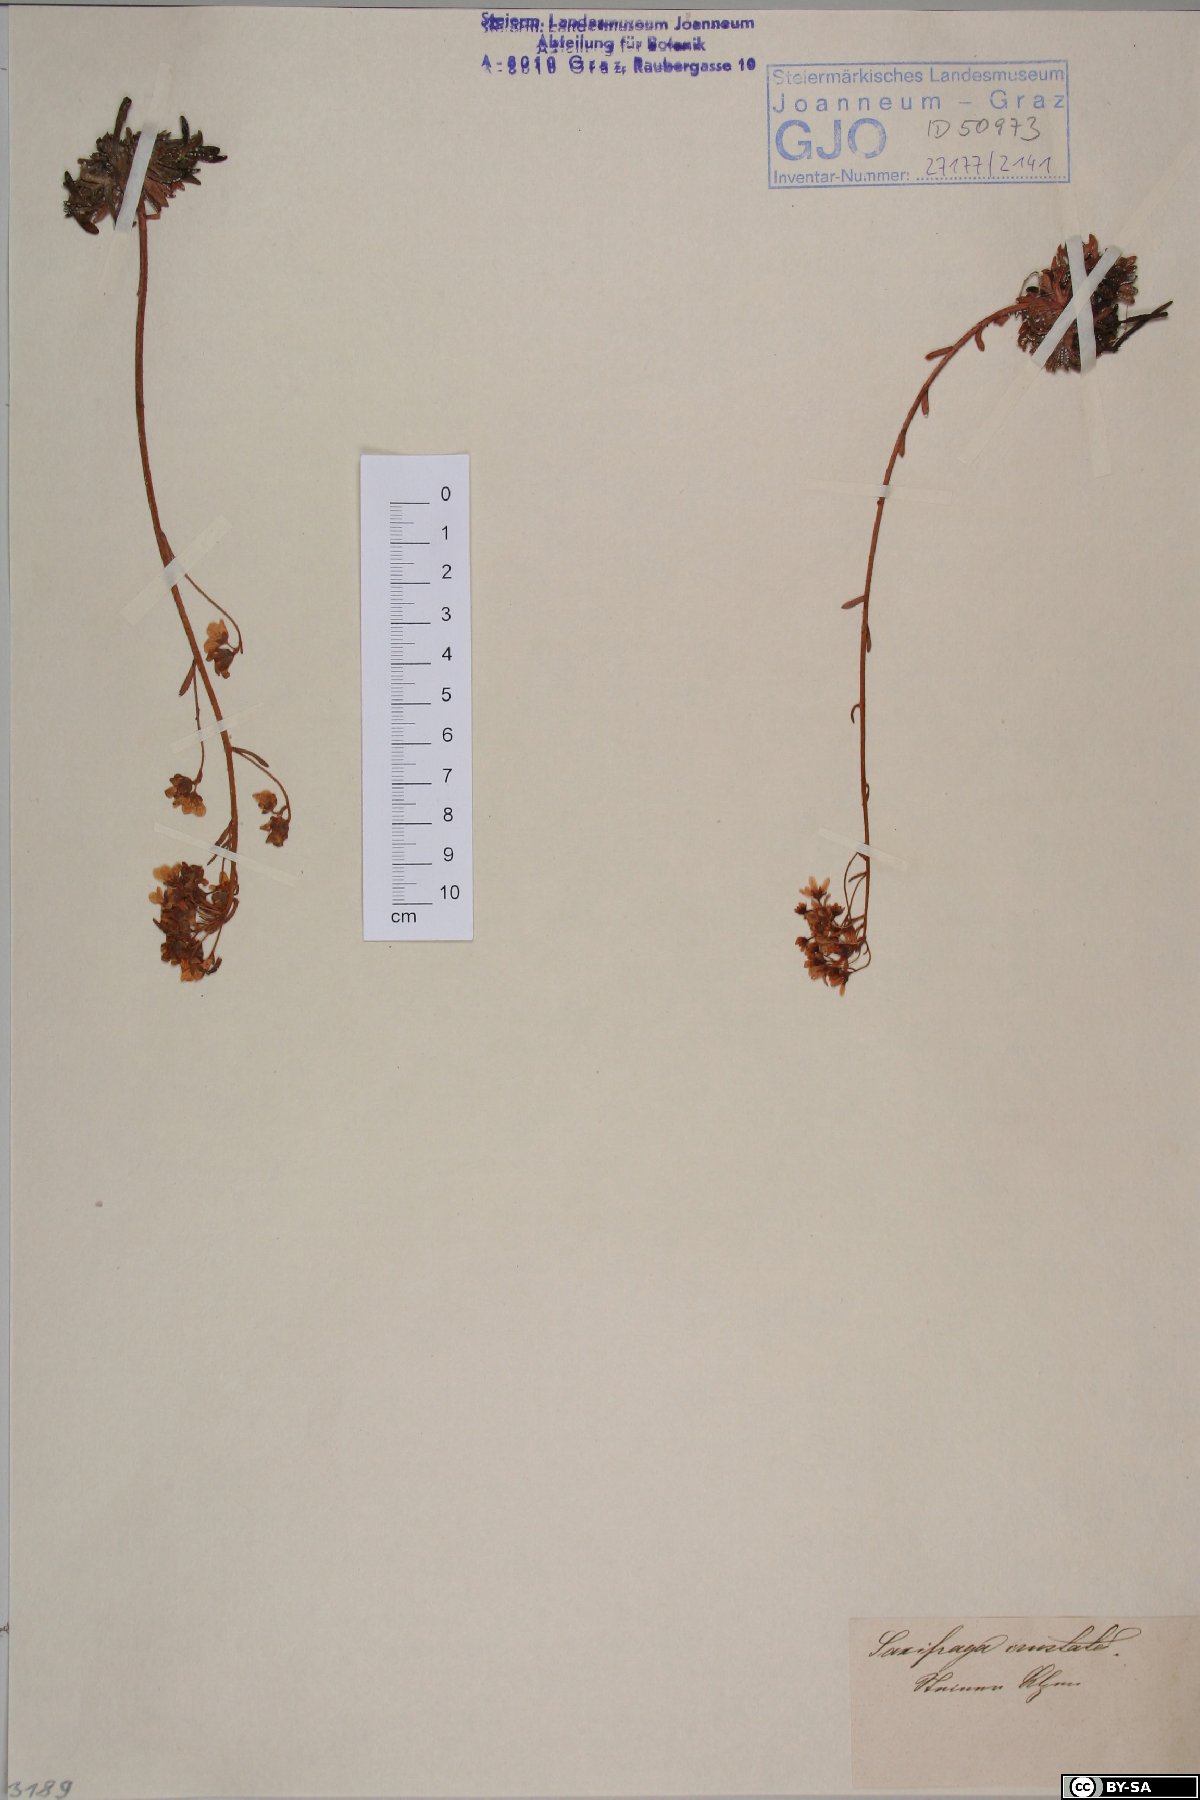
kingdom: Plantae
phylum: Tracheophyta
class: Magnoliopsida
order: Saxifragales
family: Saxifragaceae
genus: Saxifraga
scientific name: Saxifraga crustata
